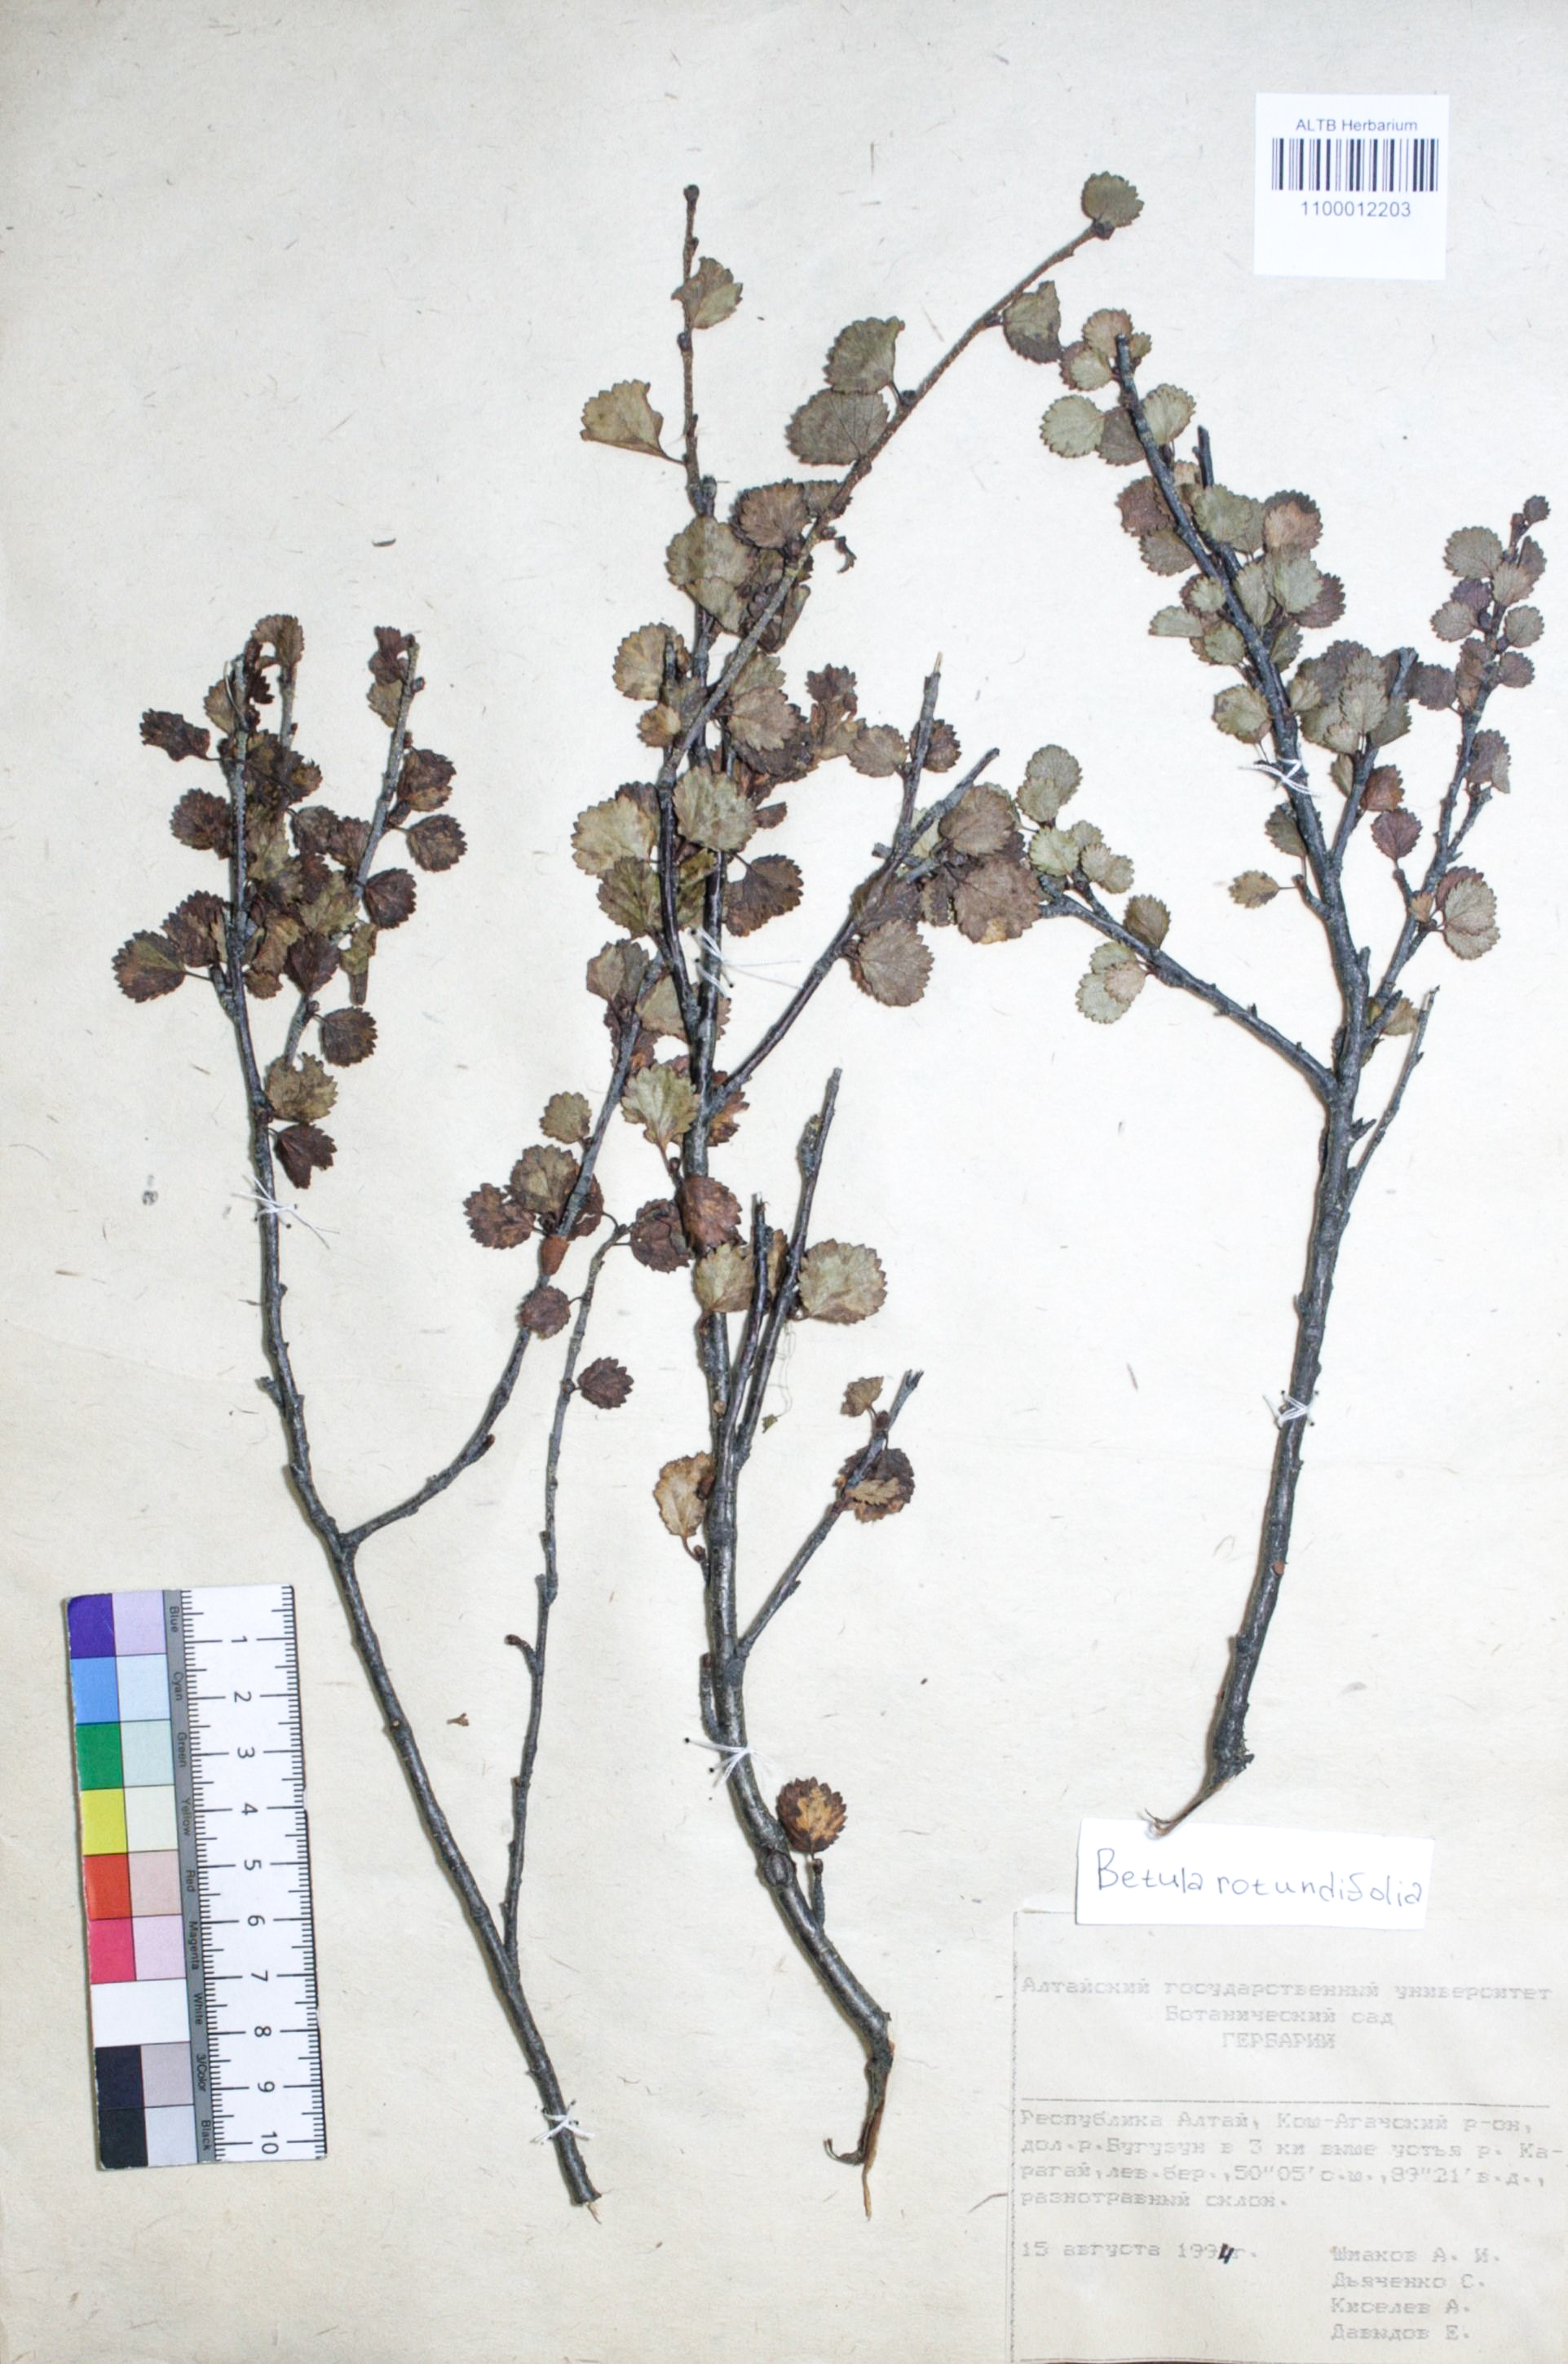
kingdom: Plantae
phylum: Tracheophyta
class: Magnoliopsida
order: Fagales
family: Betulaceae
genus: Betula
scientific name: Betula glandulosa
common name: Dwarf birch
